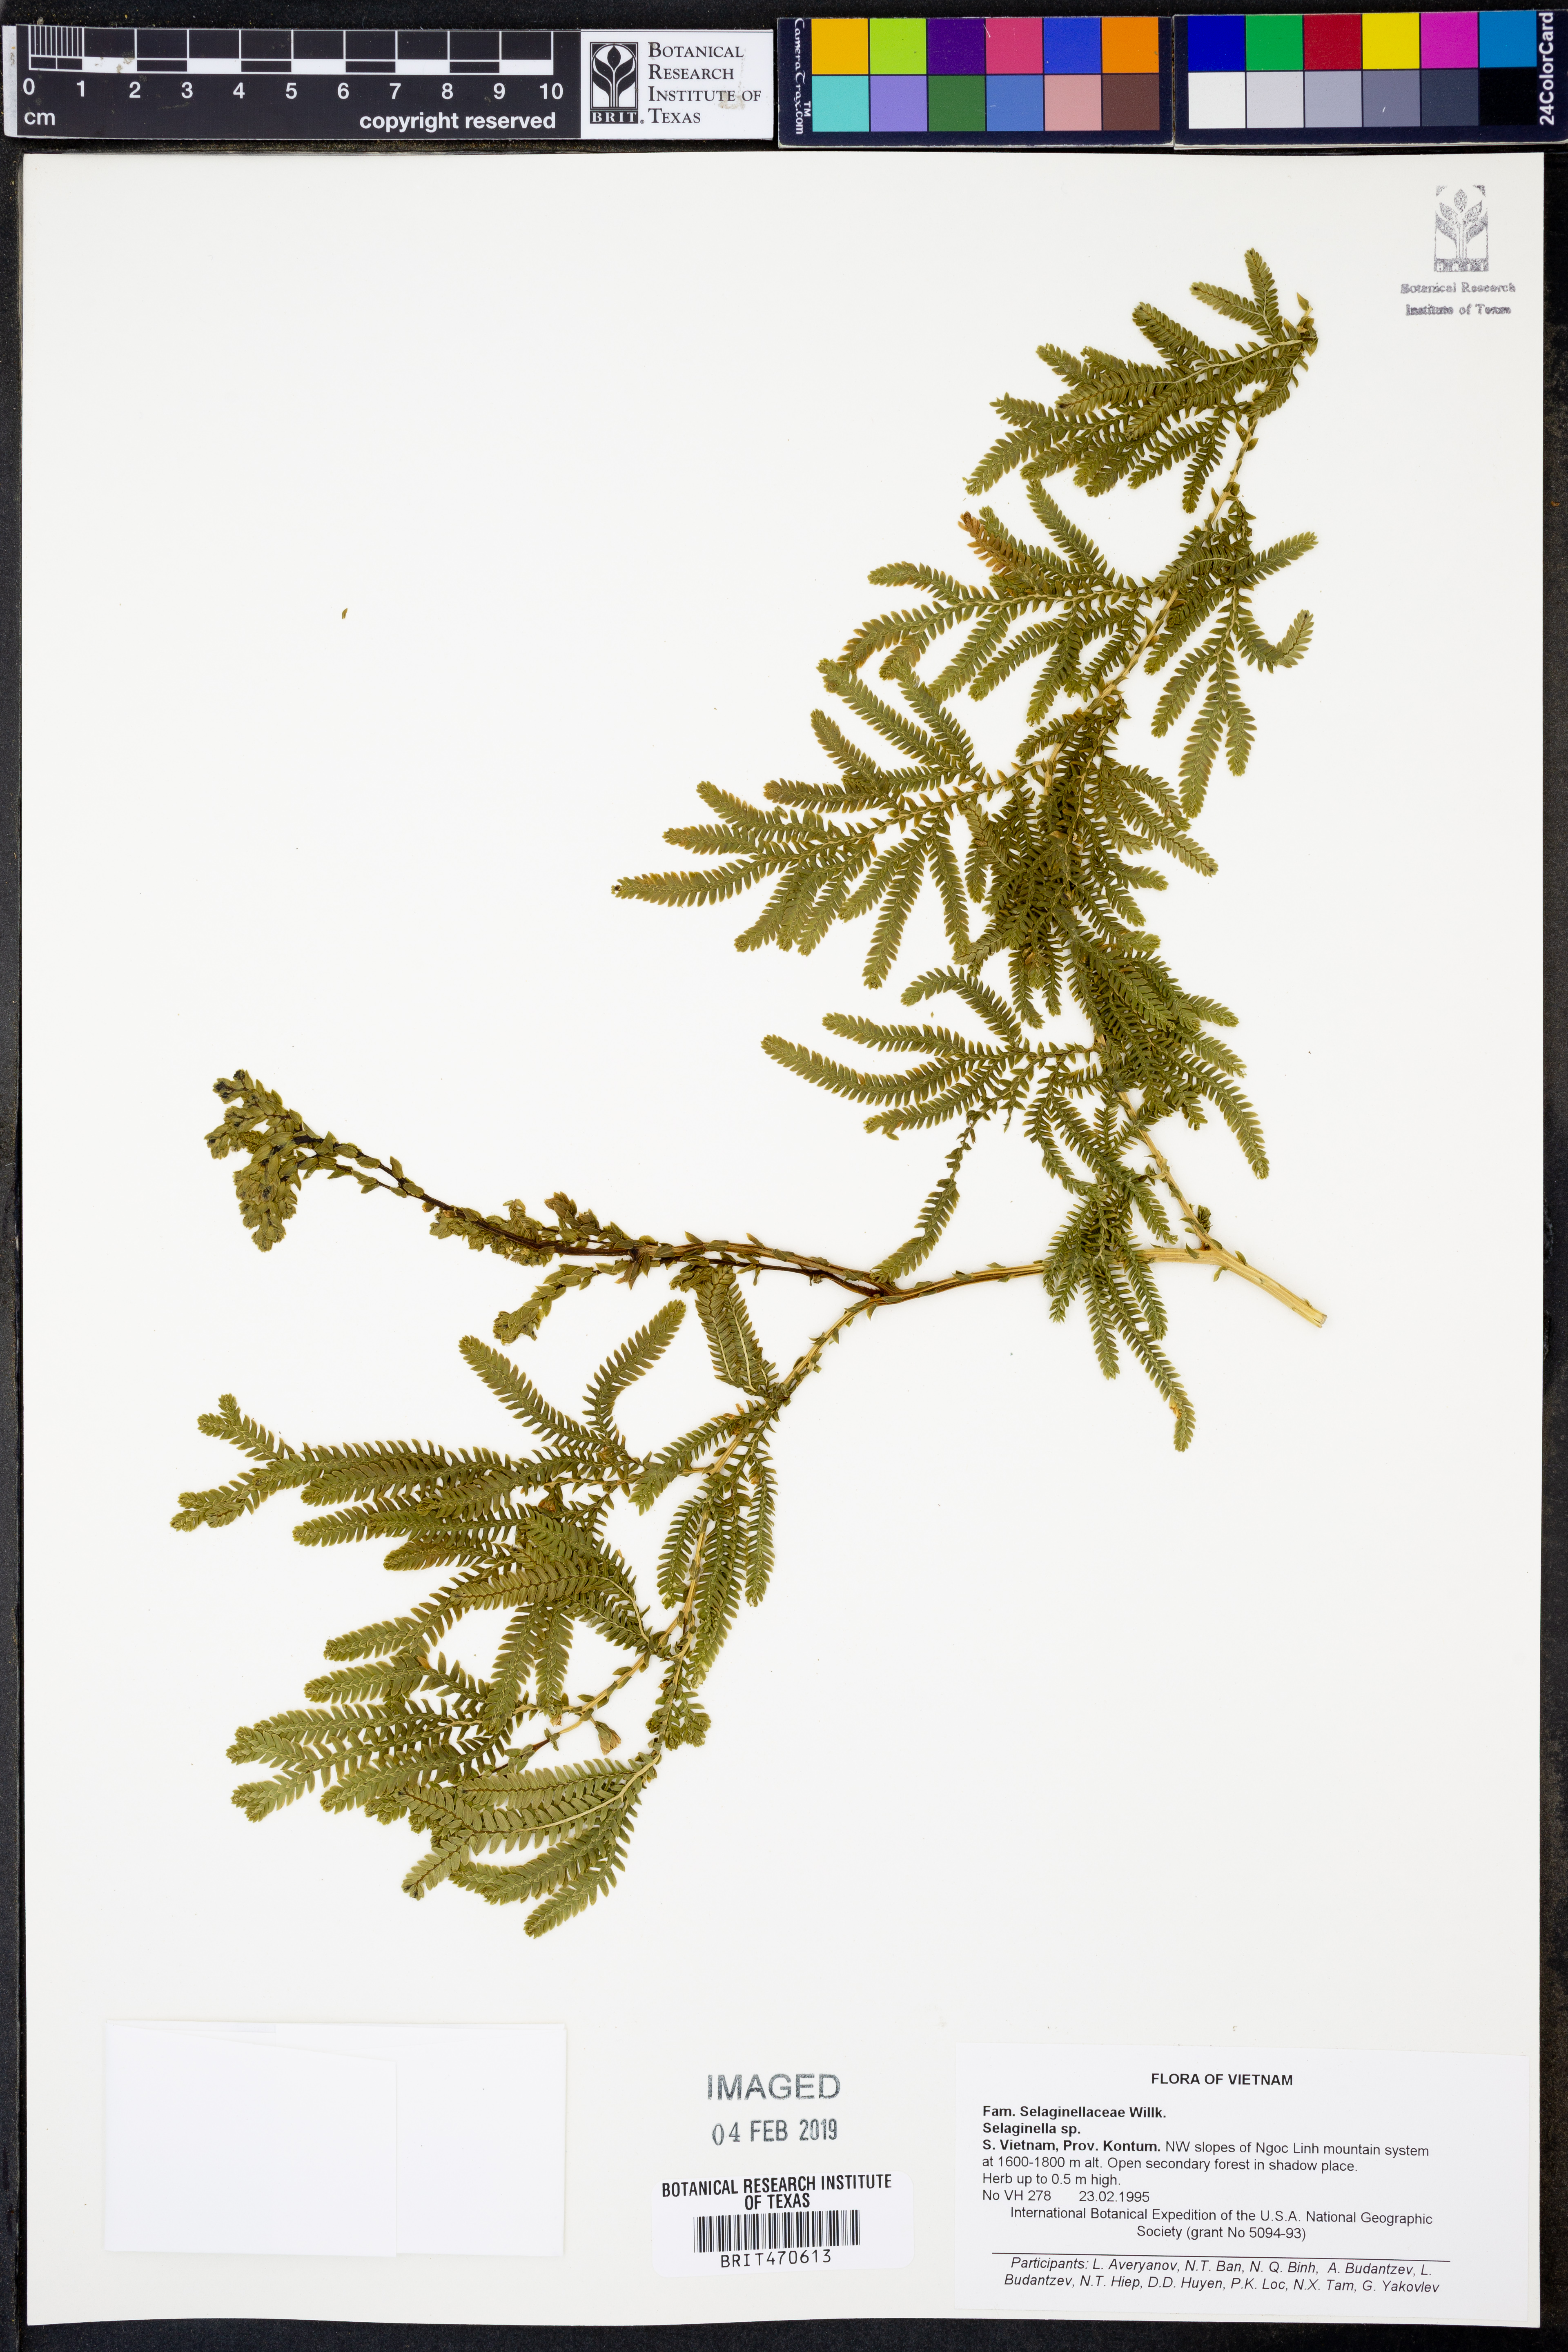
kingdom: Plantae
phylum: Tracheophyta
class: Lycopodiopsida
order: Selaginellales
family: Selaginellaceae
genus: Selaginella
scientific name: Selaginella
